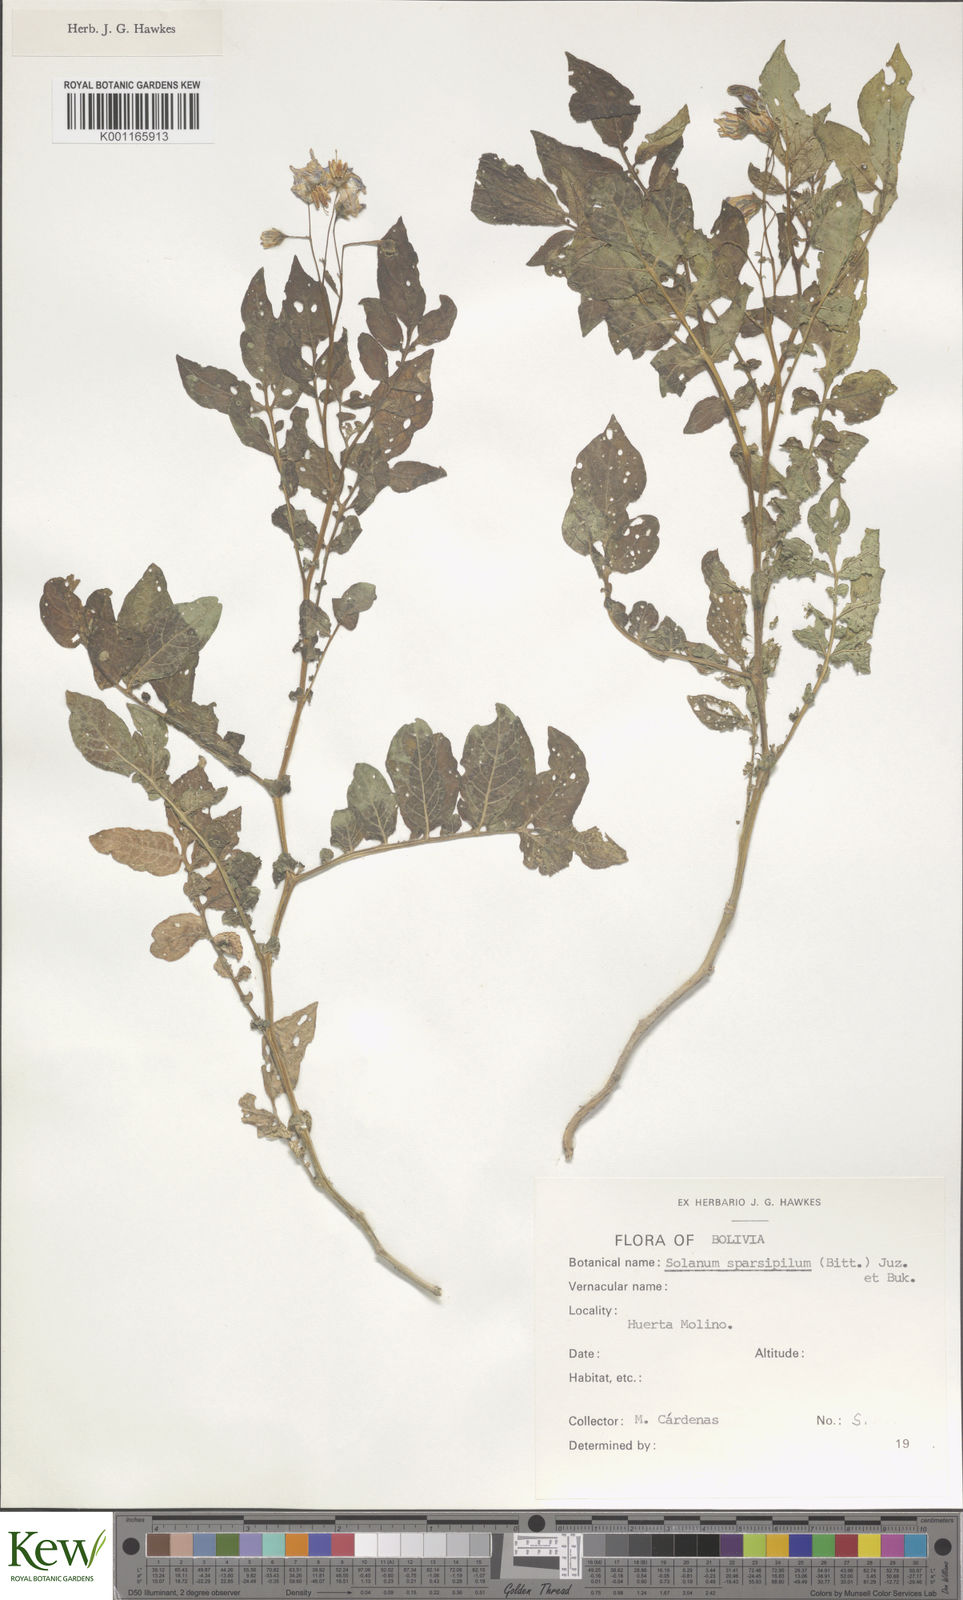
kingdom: Plantae
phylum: Tracheophyta
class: Magnoliopsida
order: Solanales
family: Solanaceae
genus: Solanum
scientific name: Solanum brevicaule
